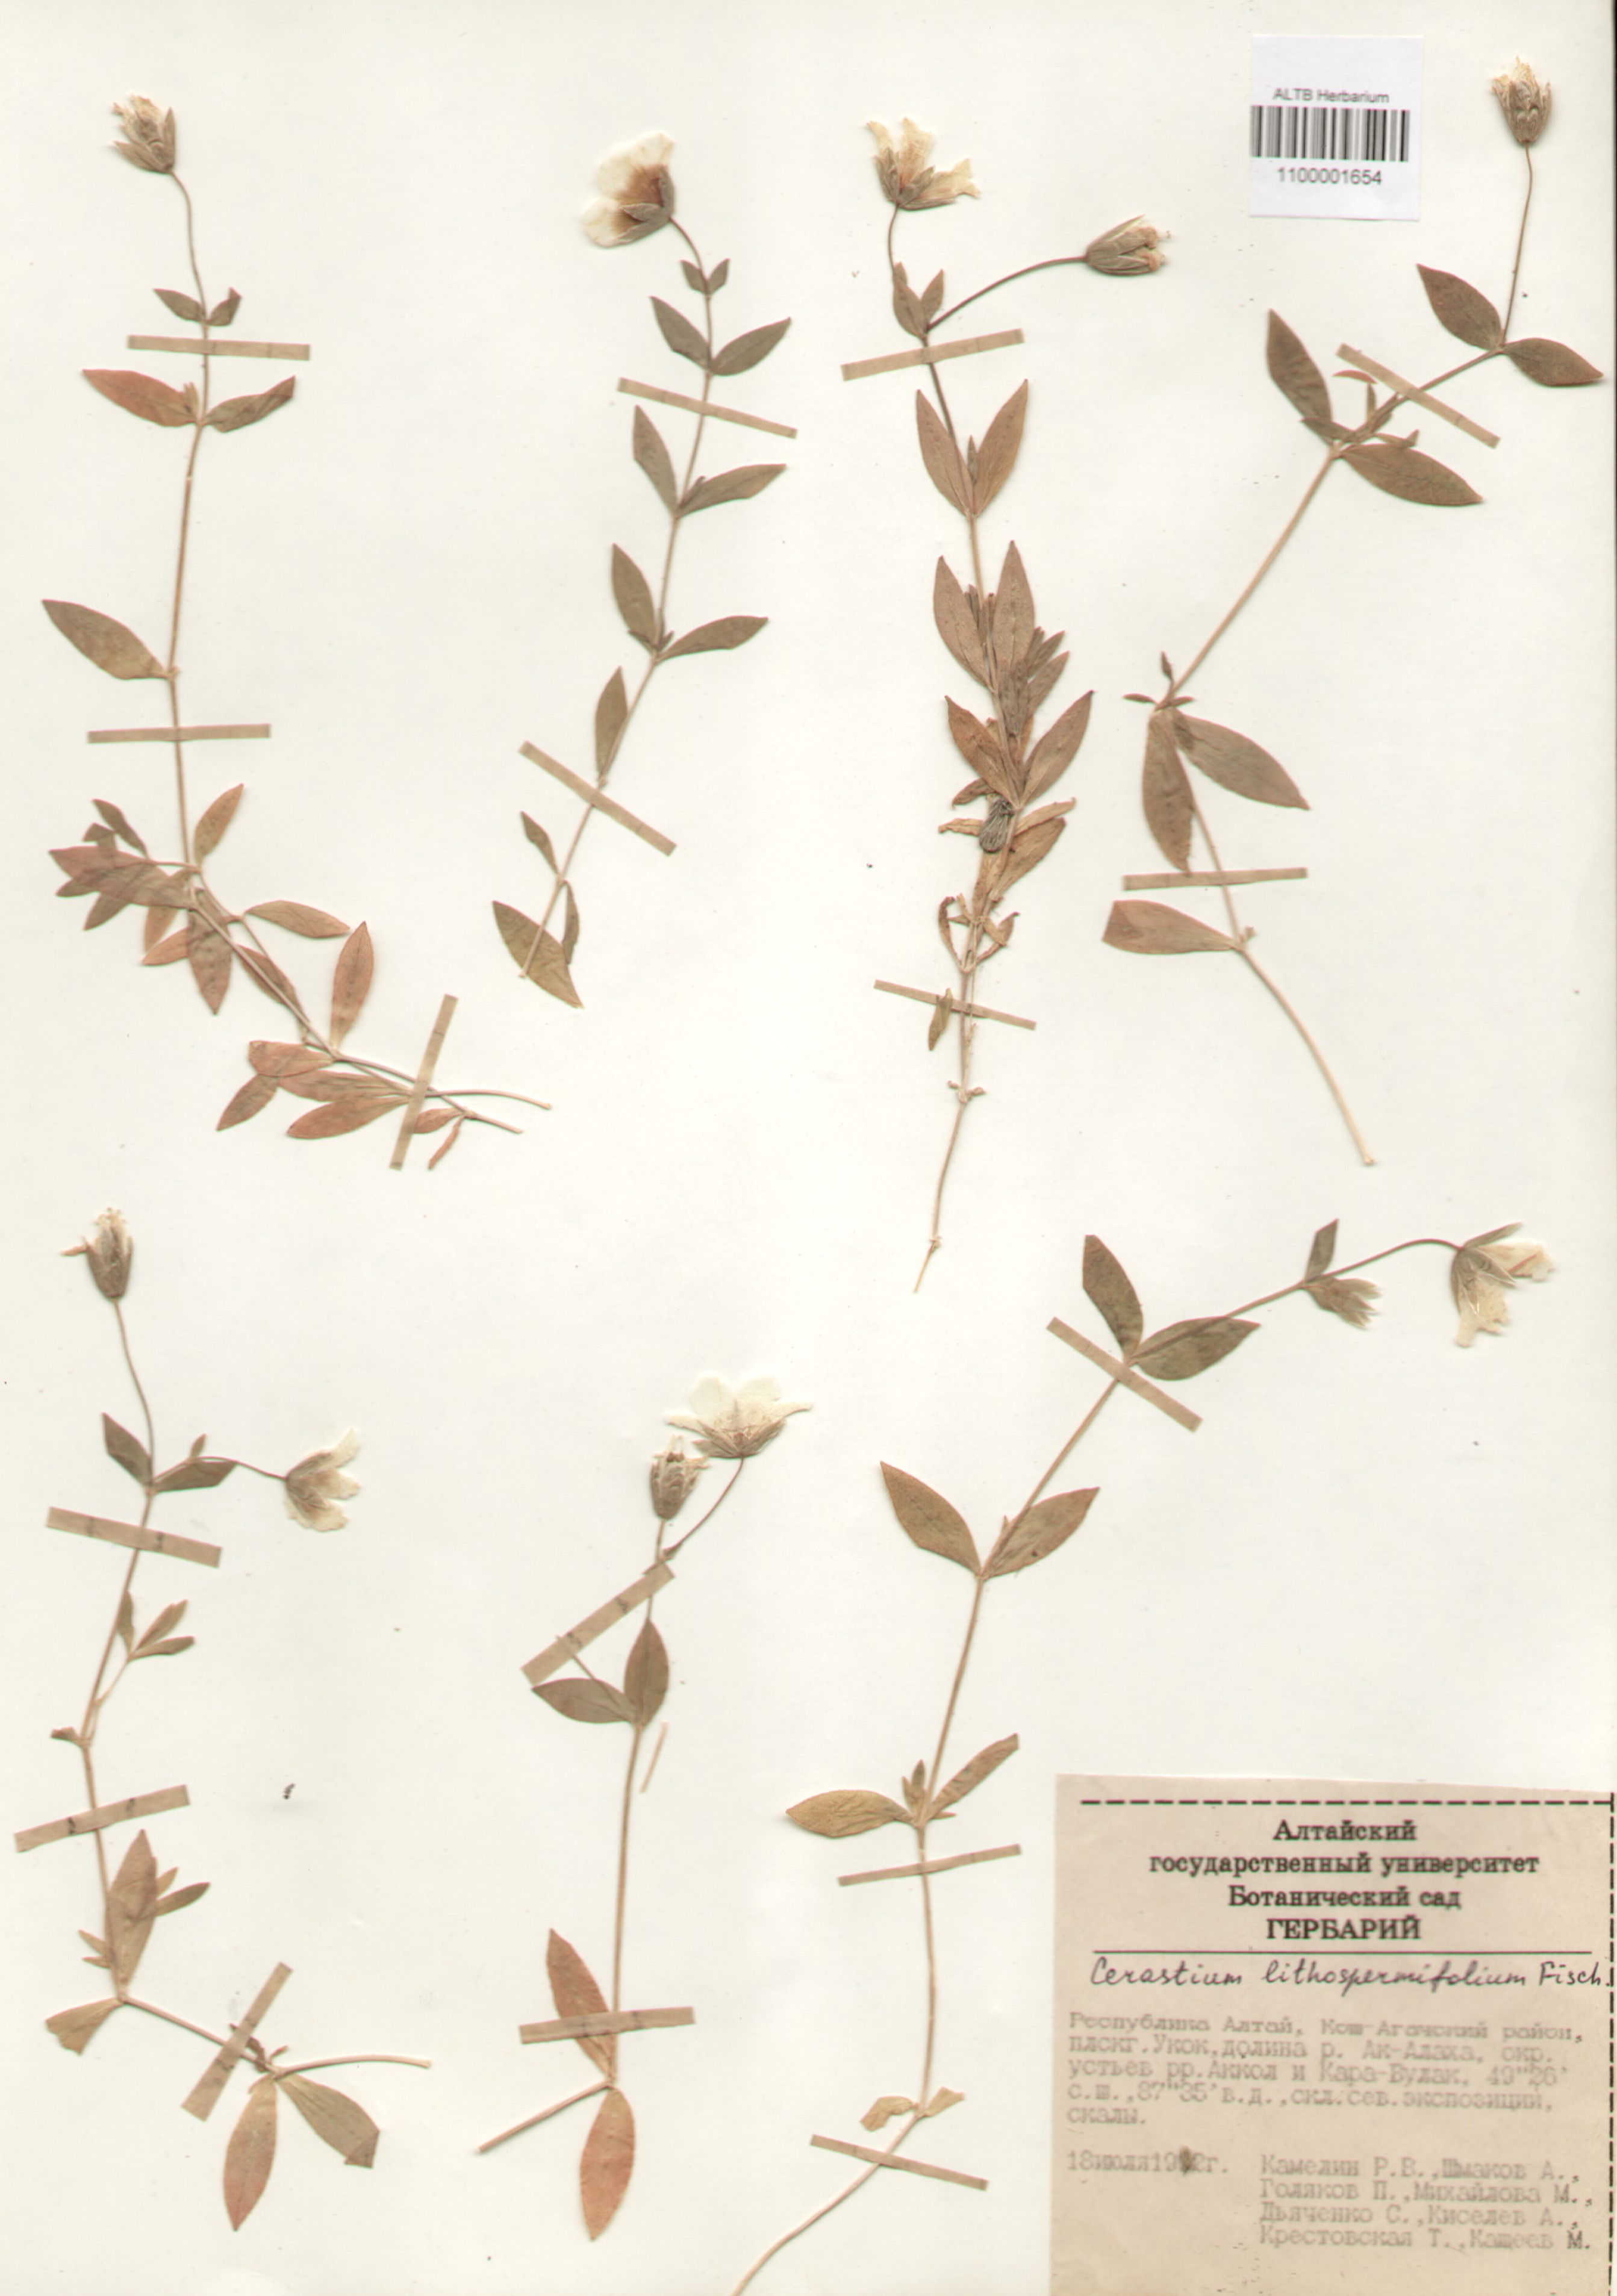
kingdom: Plantae
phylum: Tracheophyta
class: Magnoliopsida
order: Caryophyllales
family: Caryophyllaceae
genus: Cerastium
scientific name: Cerastium lithospermifolium
